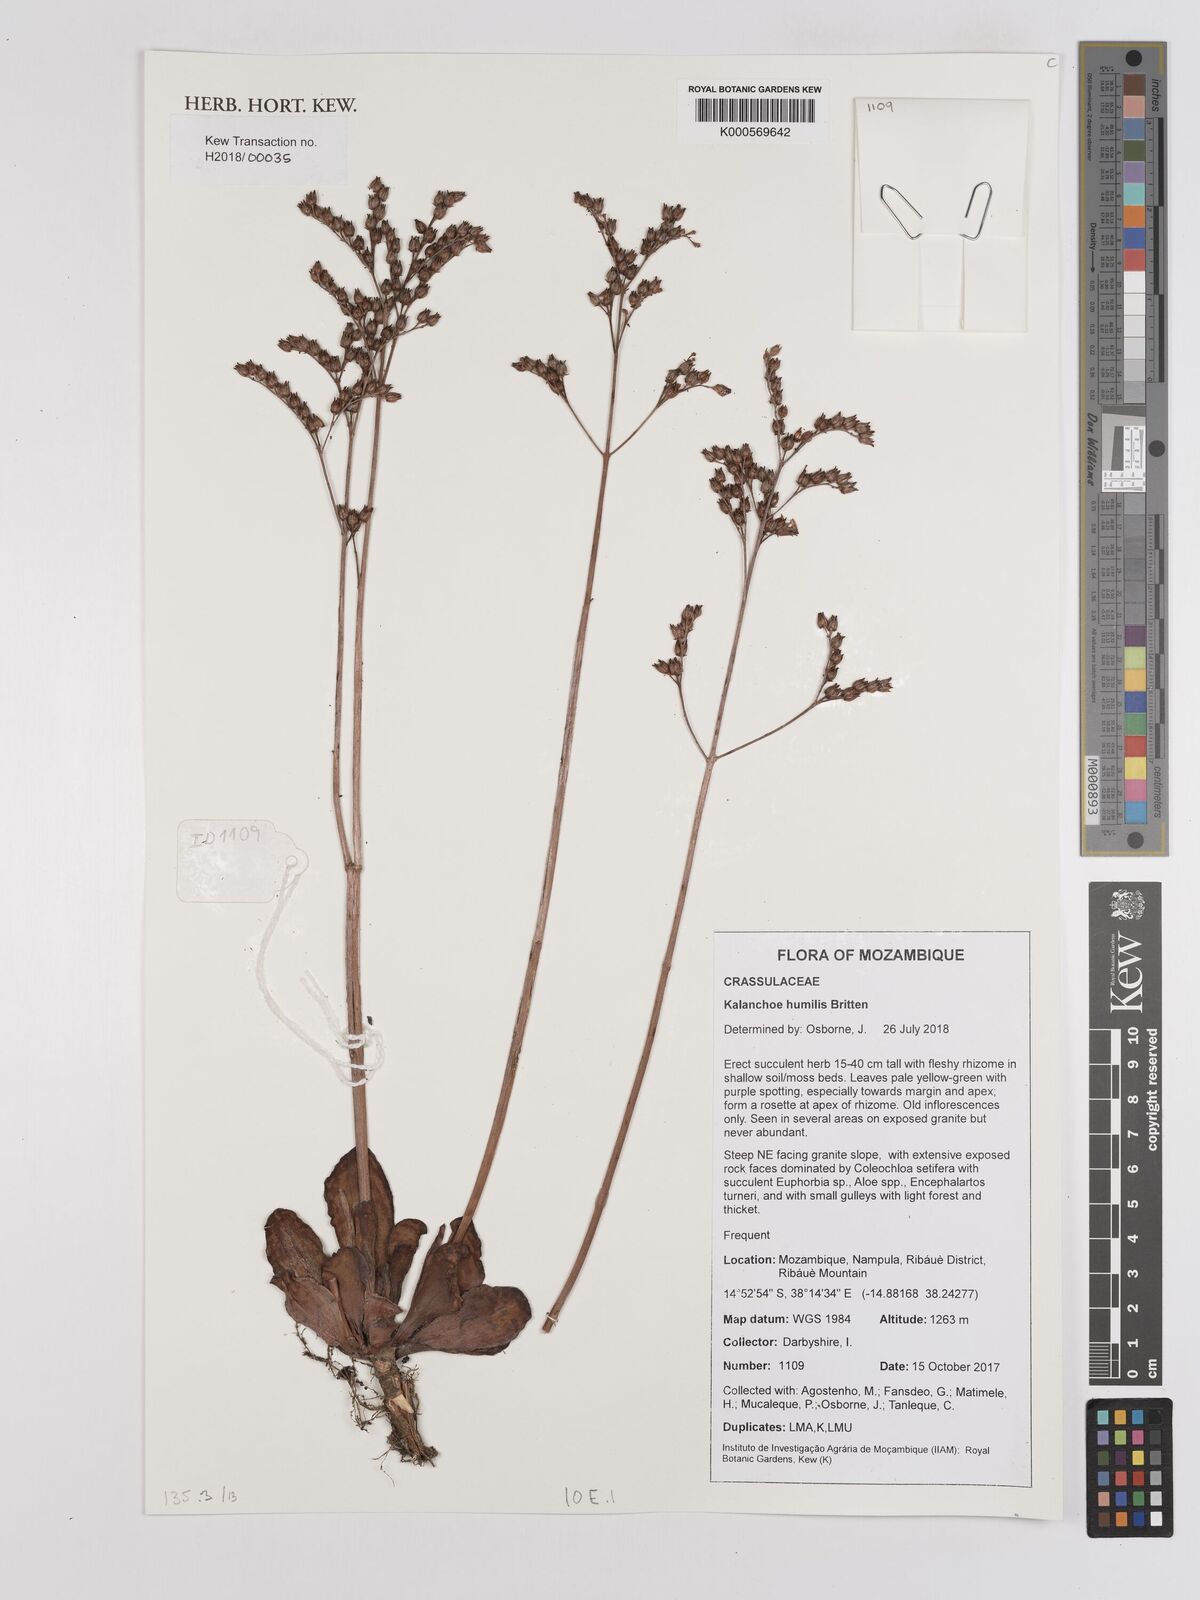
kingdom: Plantae
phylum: Tracheophyta
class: Magnoliopsida
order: Saxifragales
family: Crassulaceae
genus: Kalanchoe
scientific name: Kalanchoe humilis
